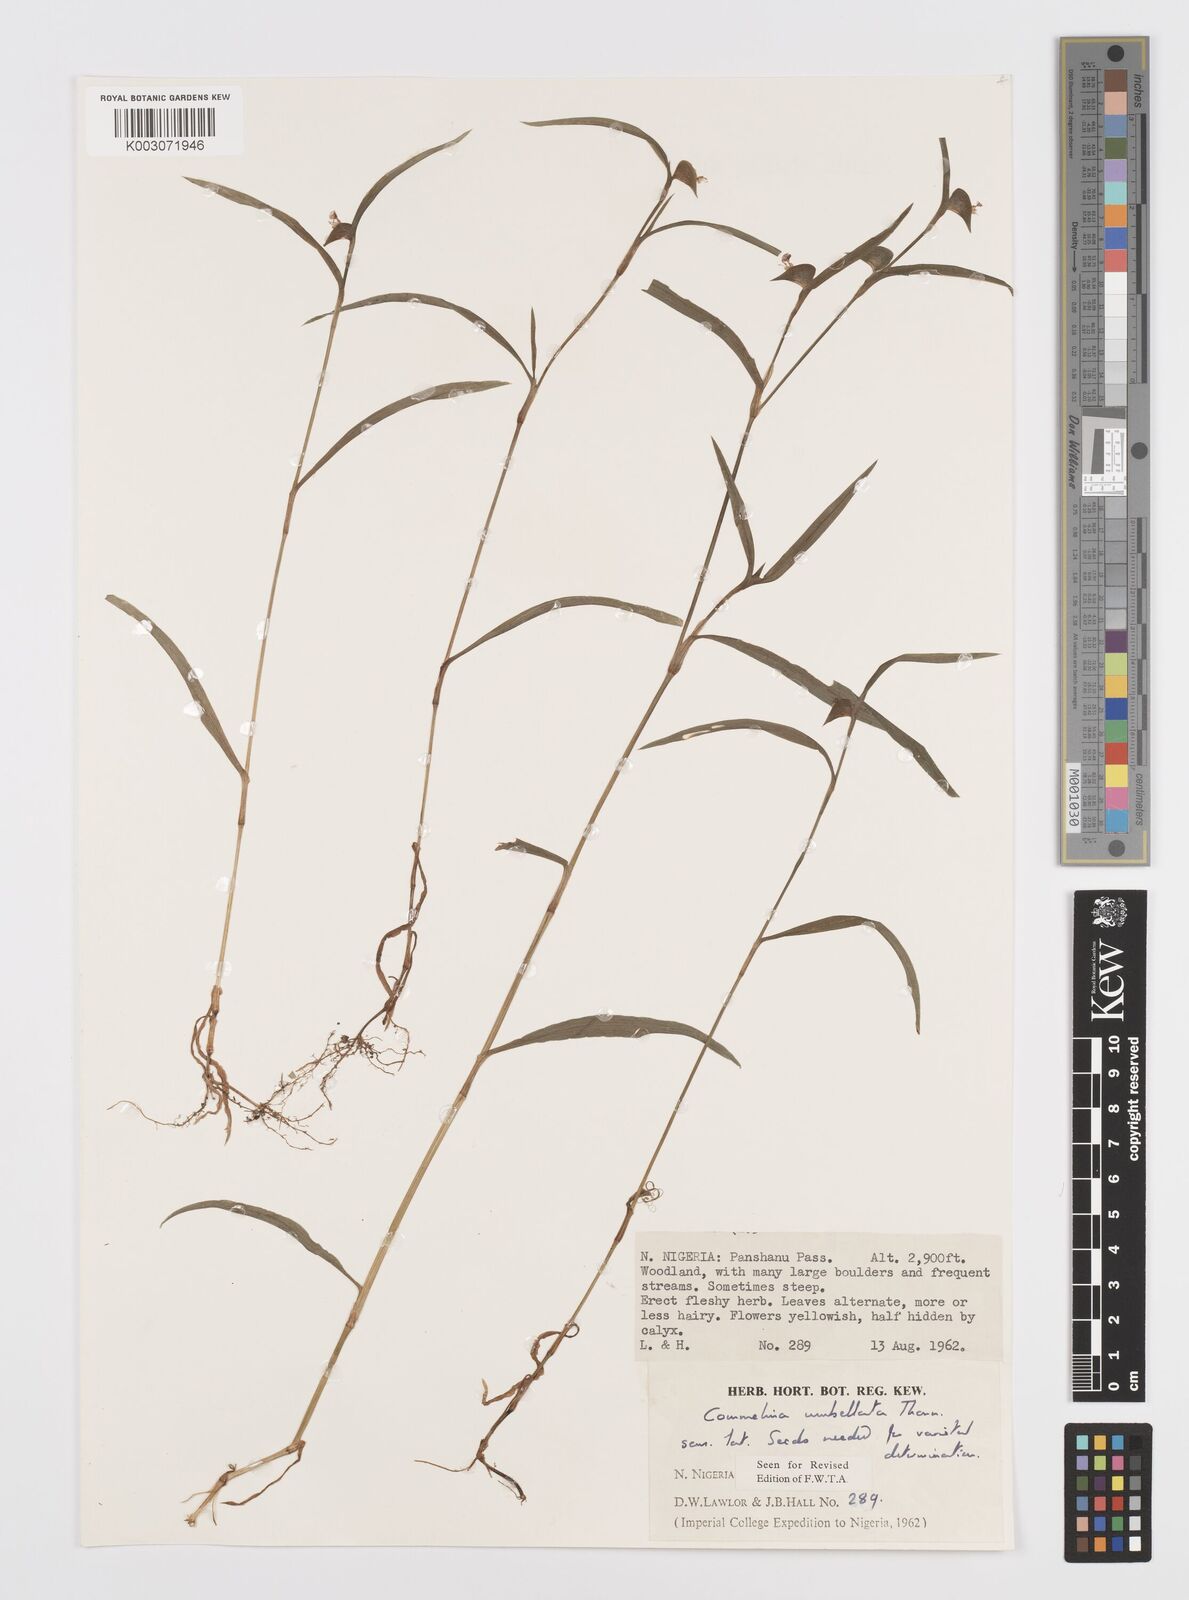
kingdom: Plantae
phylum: Tracheophyta
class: Liliopsida
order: Commelinales
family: Commelinaceae
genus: Commelina
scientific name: Commelina
